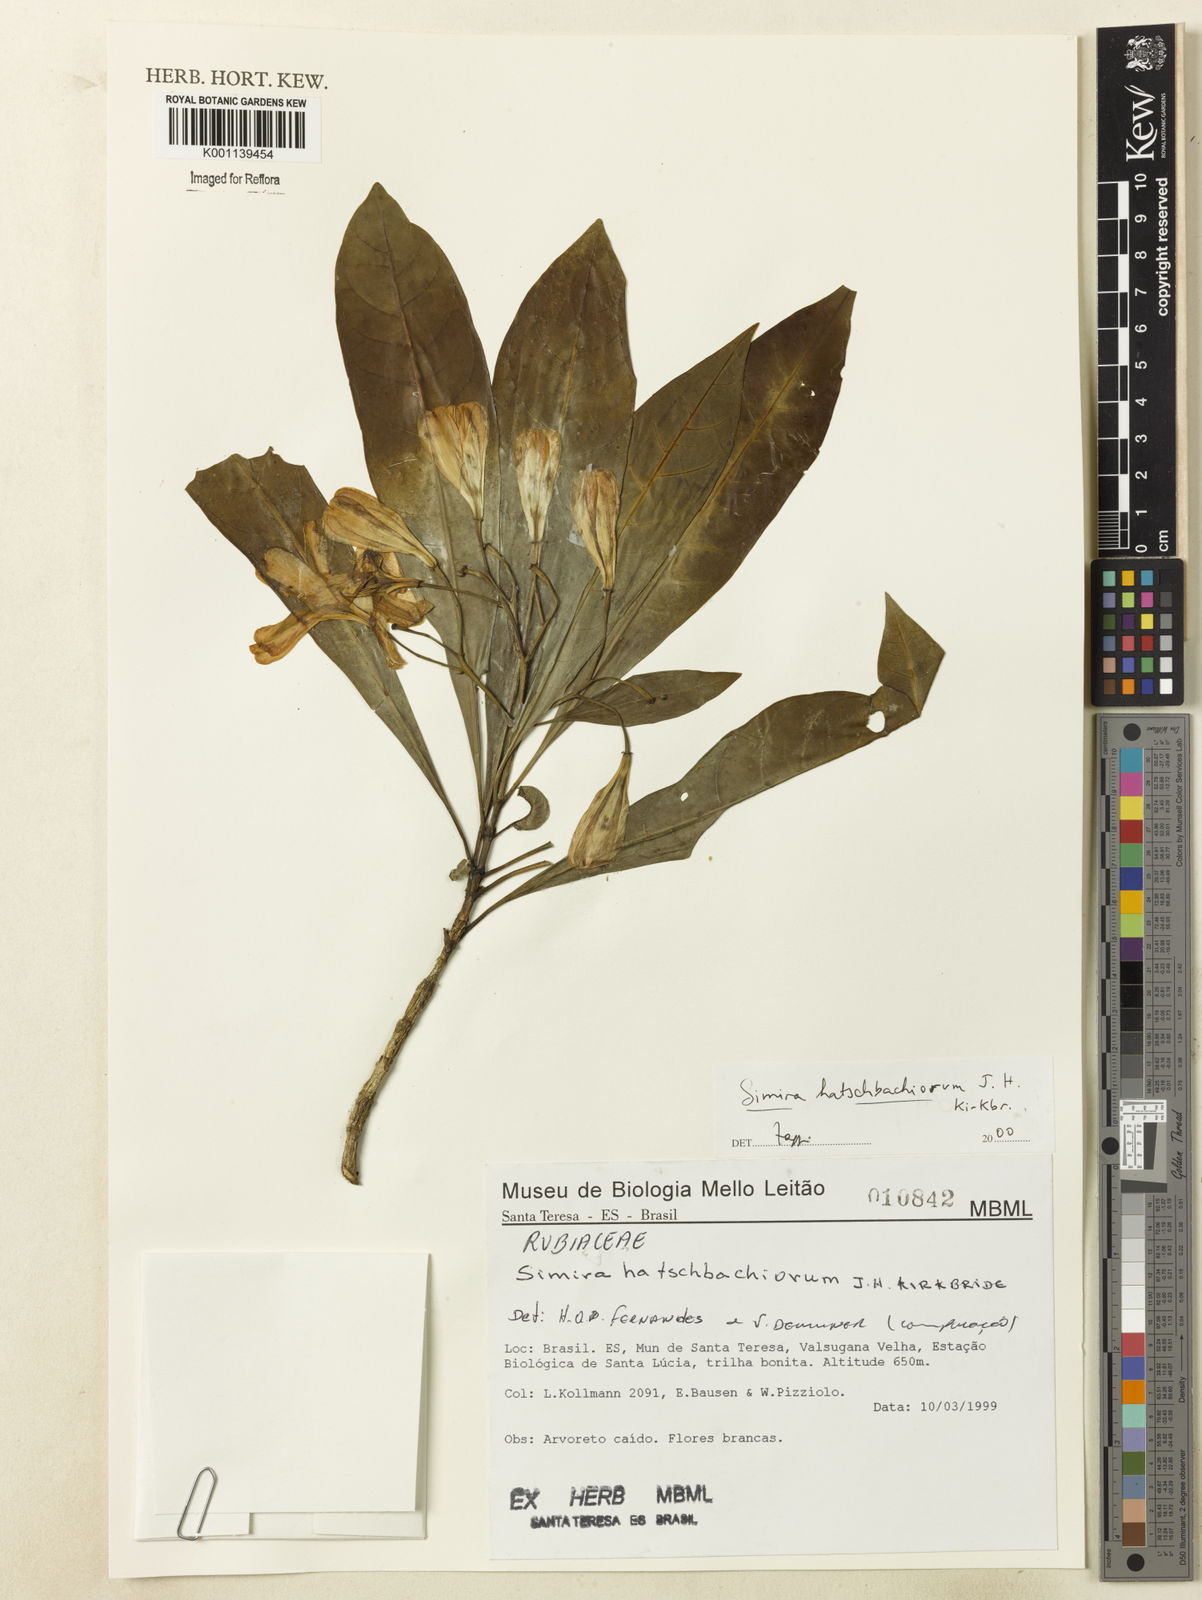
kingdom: Plantae
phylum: Tracheophyta
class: Magnoliopsida
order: Gentianales
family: Rubiaceae
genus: Simira
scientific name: Simira hatschbachiorum
